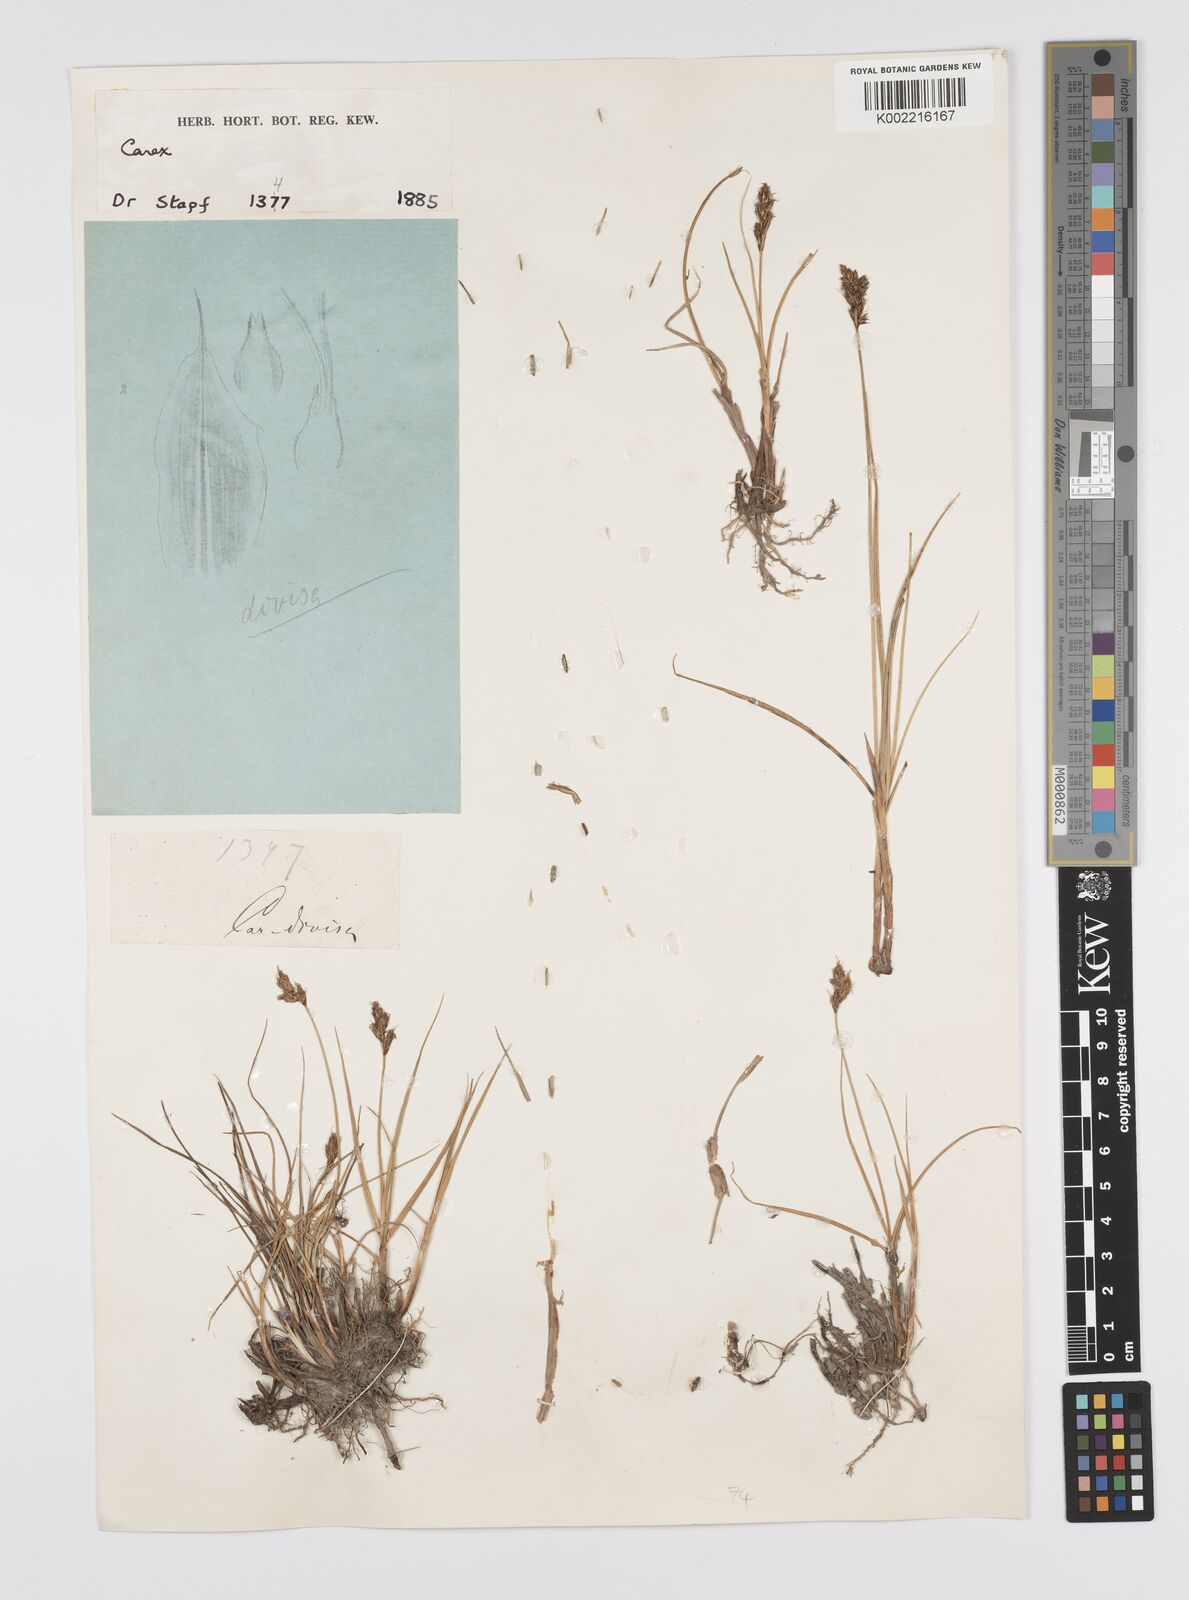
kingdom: Plantae
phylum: Tracheophyta
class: Liliopsida
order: Poales
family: Cyperaceae
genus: Carex
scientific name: Carex divisa
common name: Divided sedge
